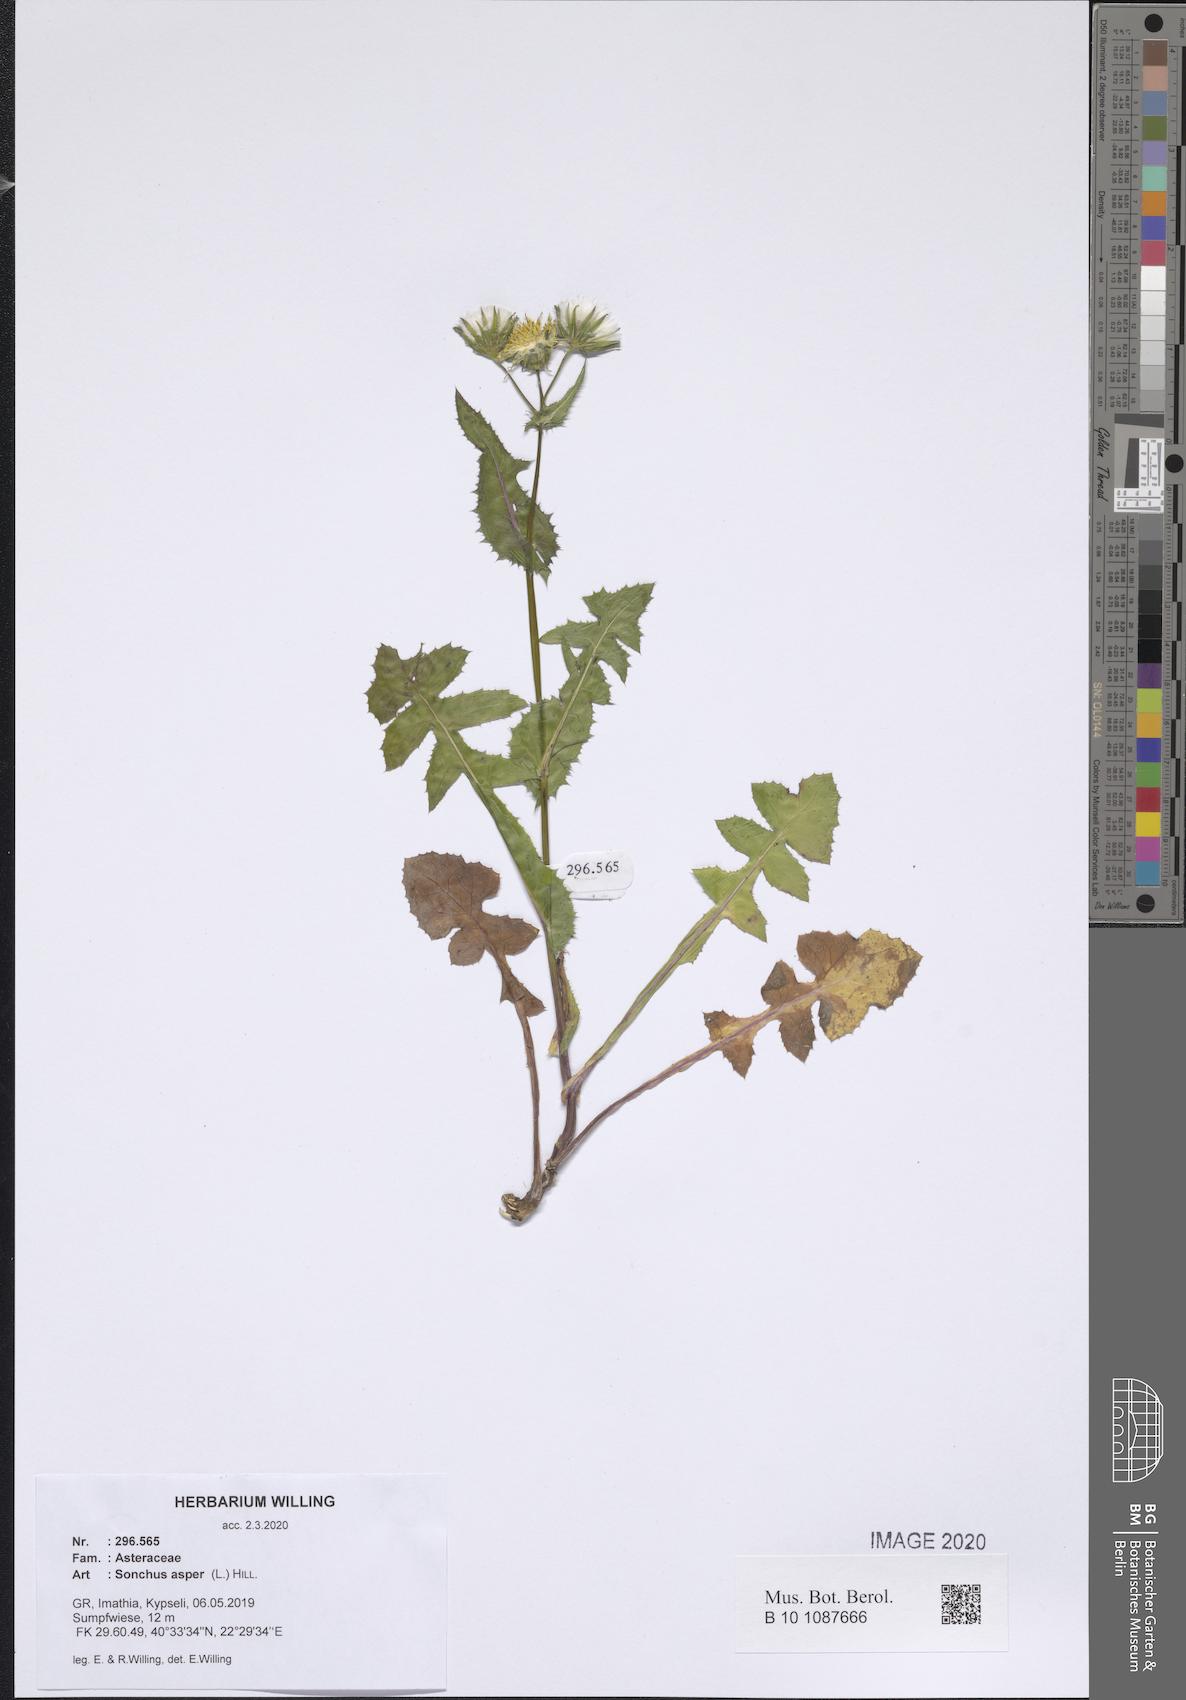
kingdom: Plantae
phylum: Tracheophyta
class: Magnoliopsida
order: Asterales
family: Asteraceae
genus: Sonchus
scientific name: Sonchus asper
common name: Prickly sow-thistle
